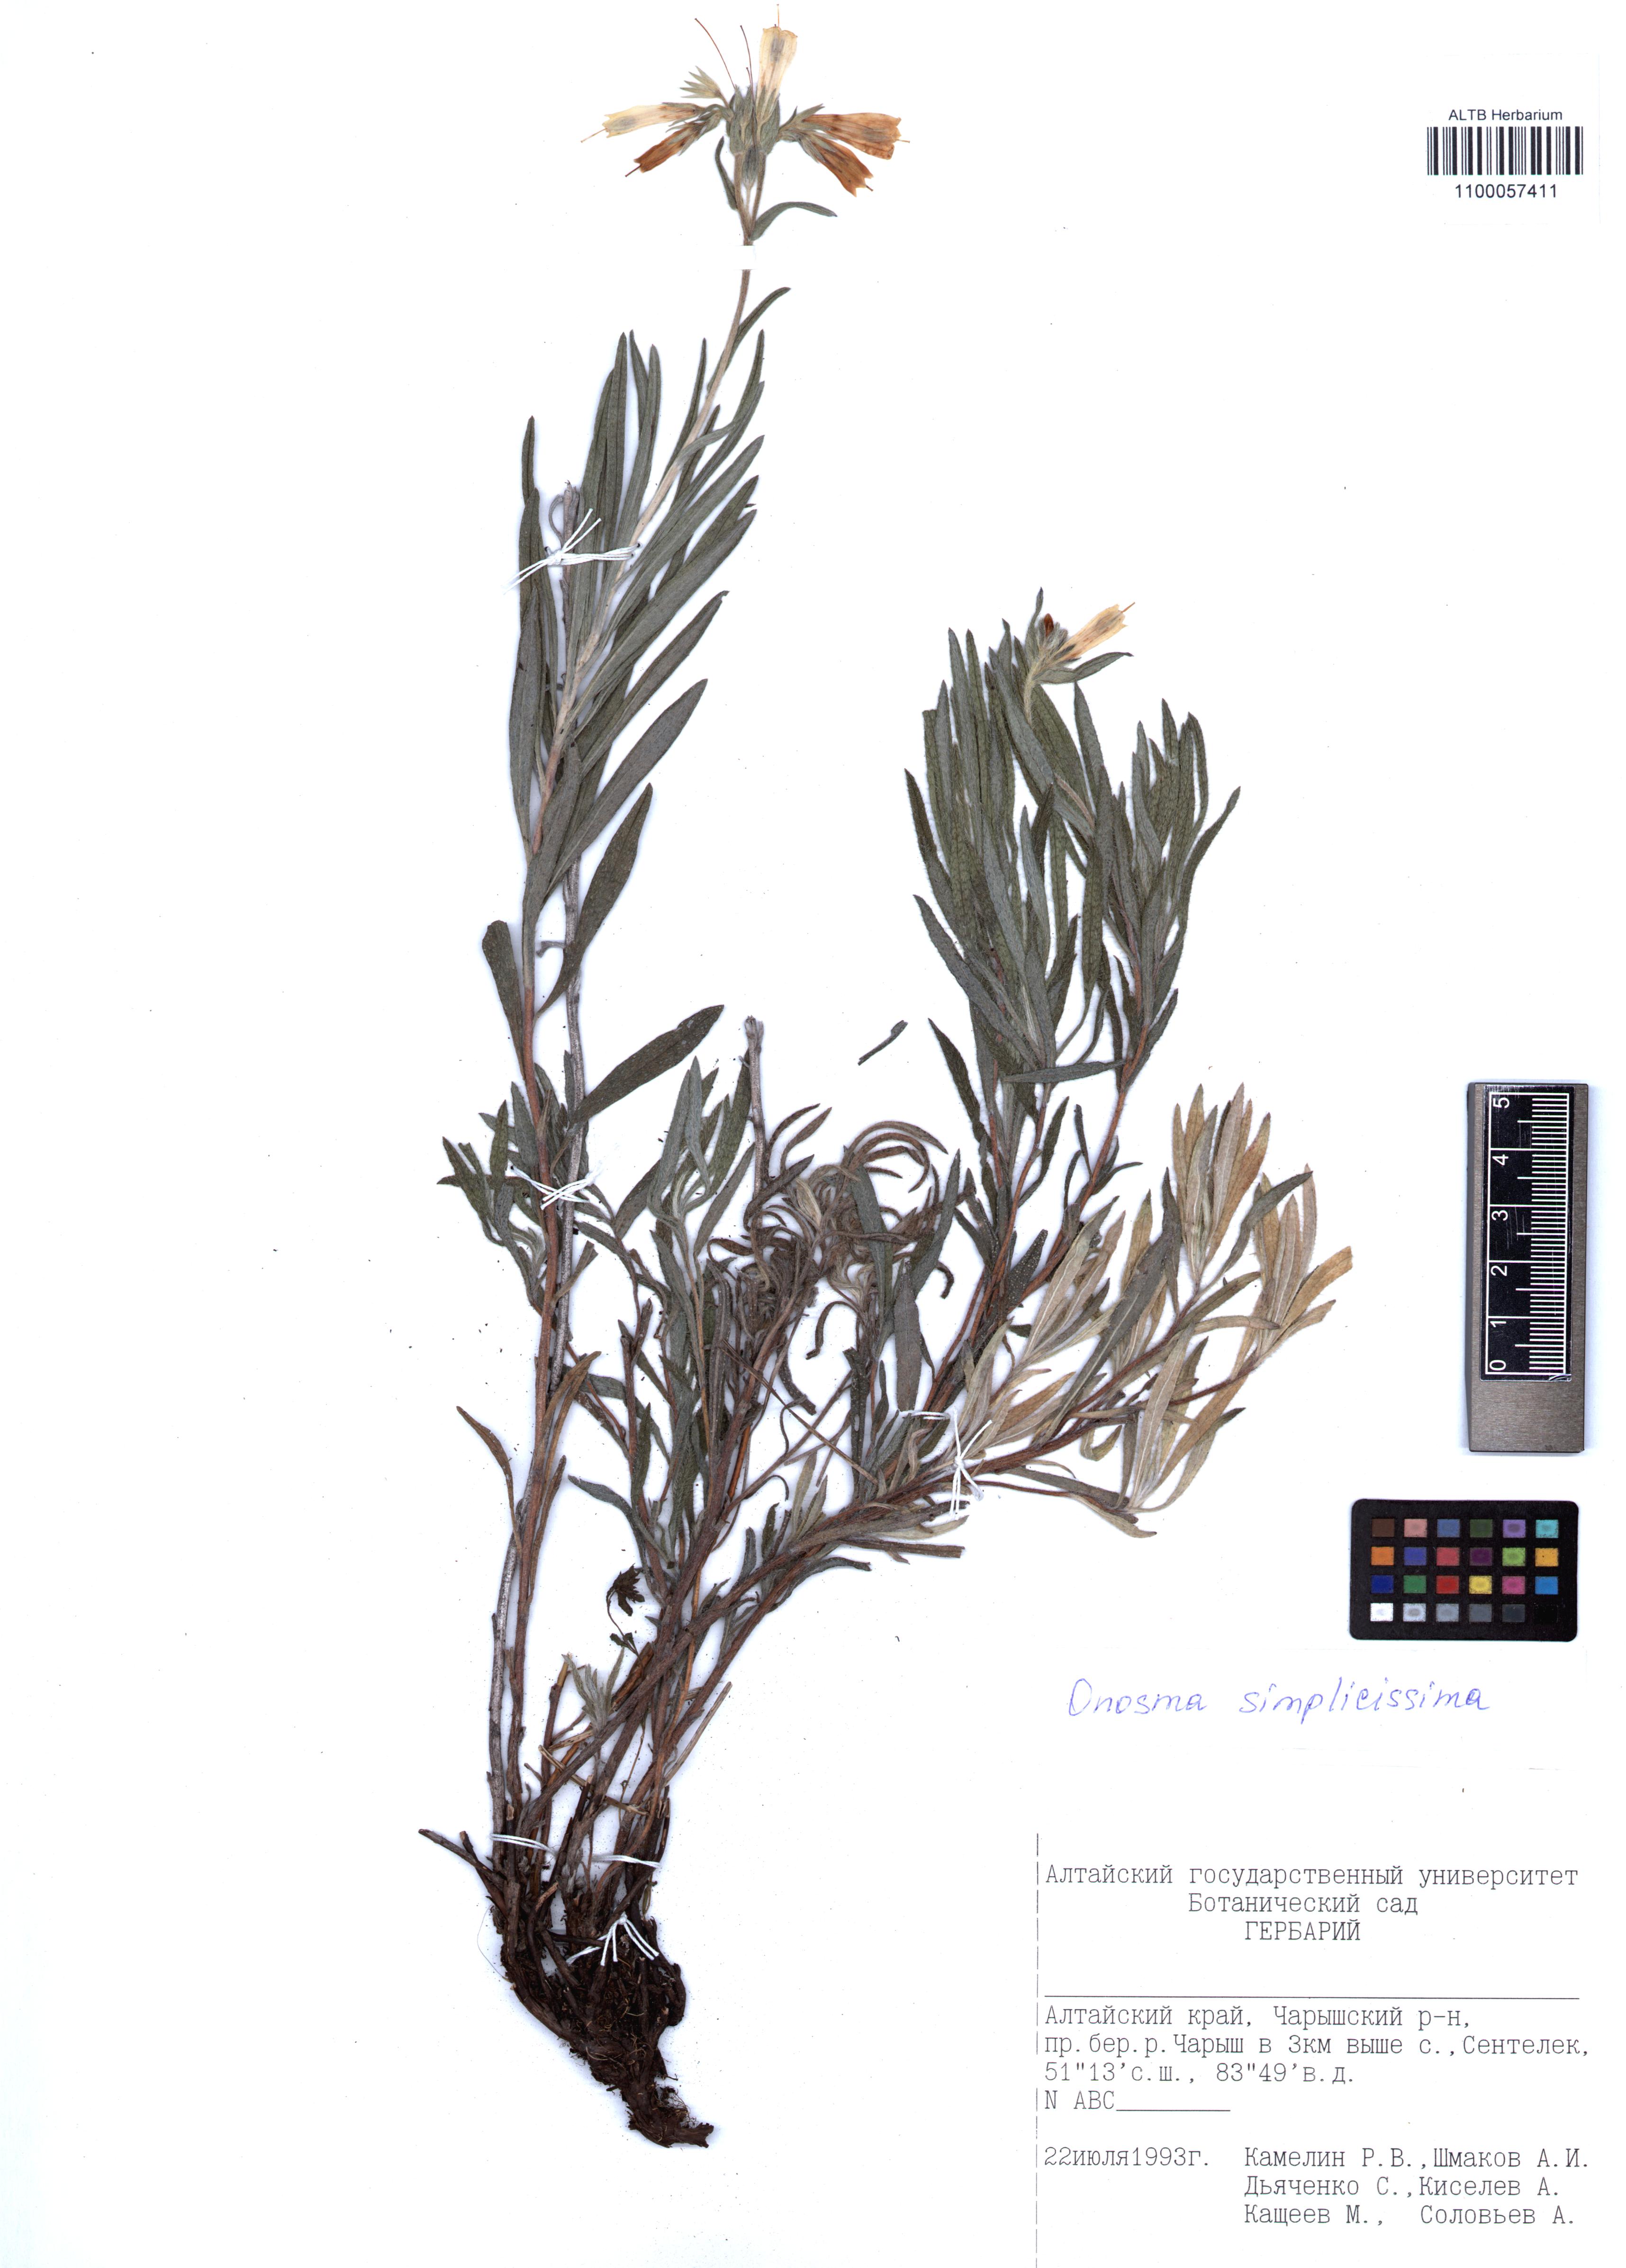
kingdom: Plantae
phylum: Tracheophyta
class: Magnoliopsida
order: Boraginales
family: Boraginaceae
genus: Onosma
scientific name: Onosma simplicissima
